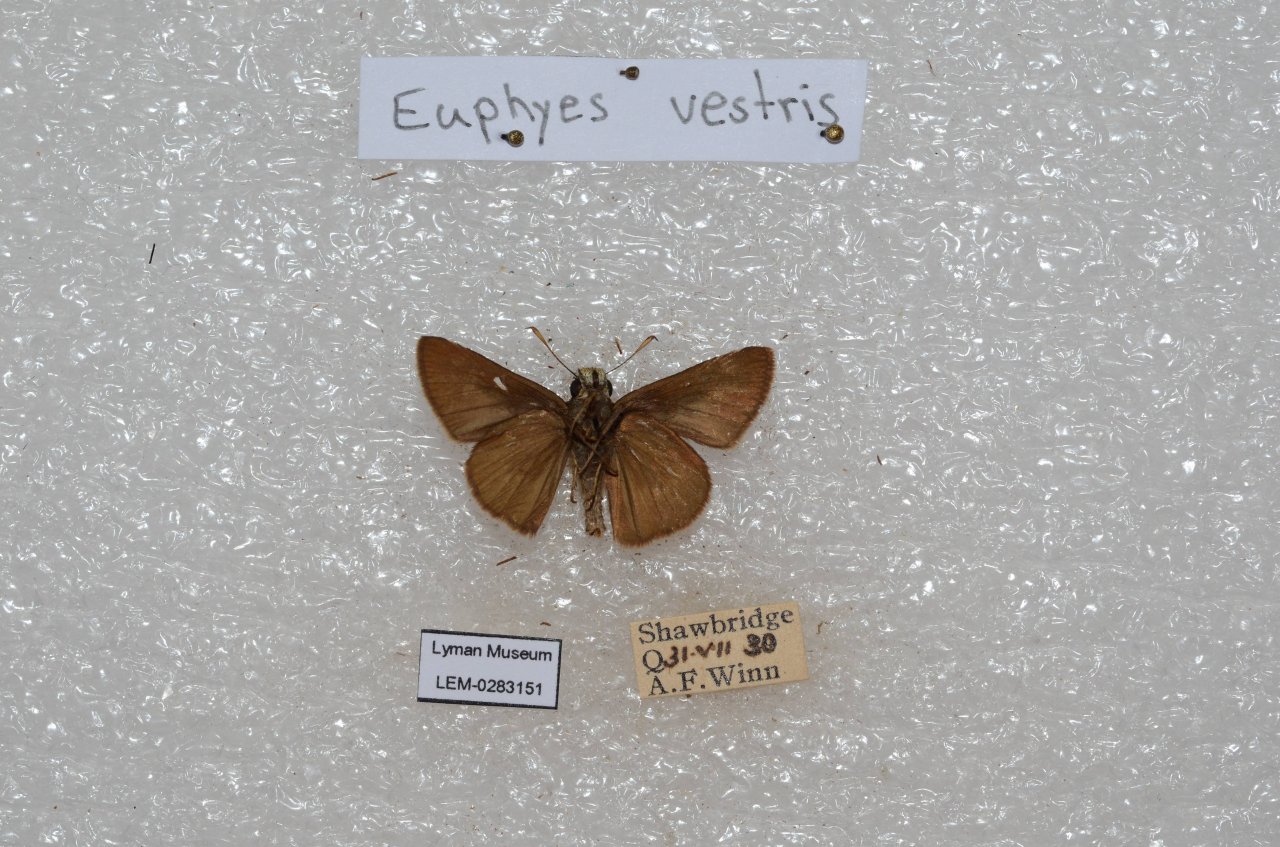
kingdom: Animalia
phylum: Arthropoda
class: Insecta
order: Lepidoptera
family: Hesperiidae
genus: Euphyes
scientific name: Euphyes vestris
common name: Dun Skipper
